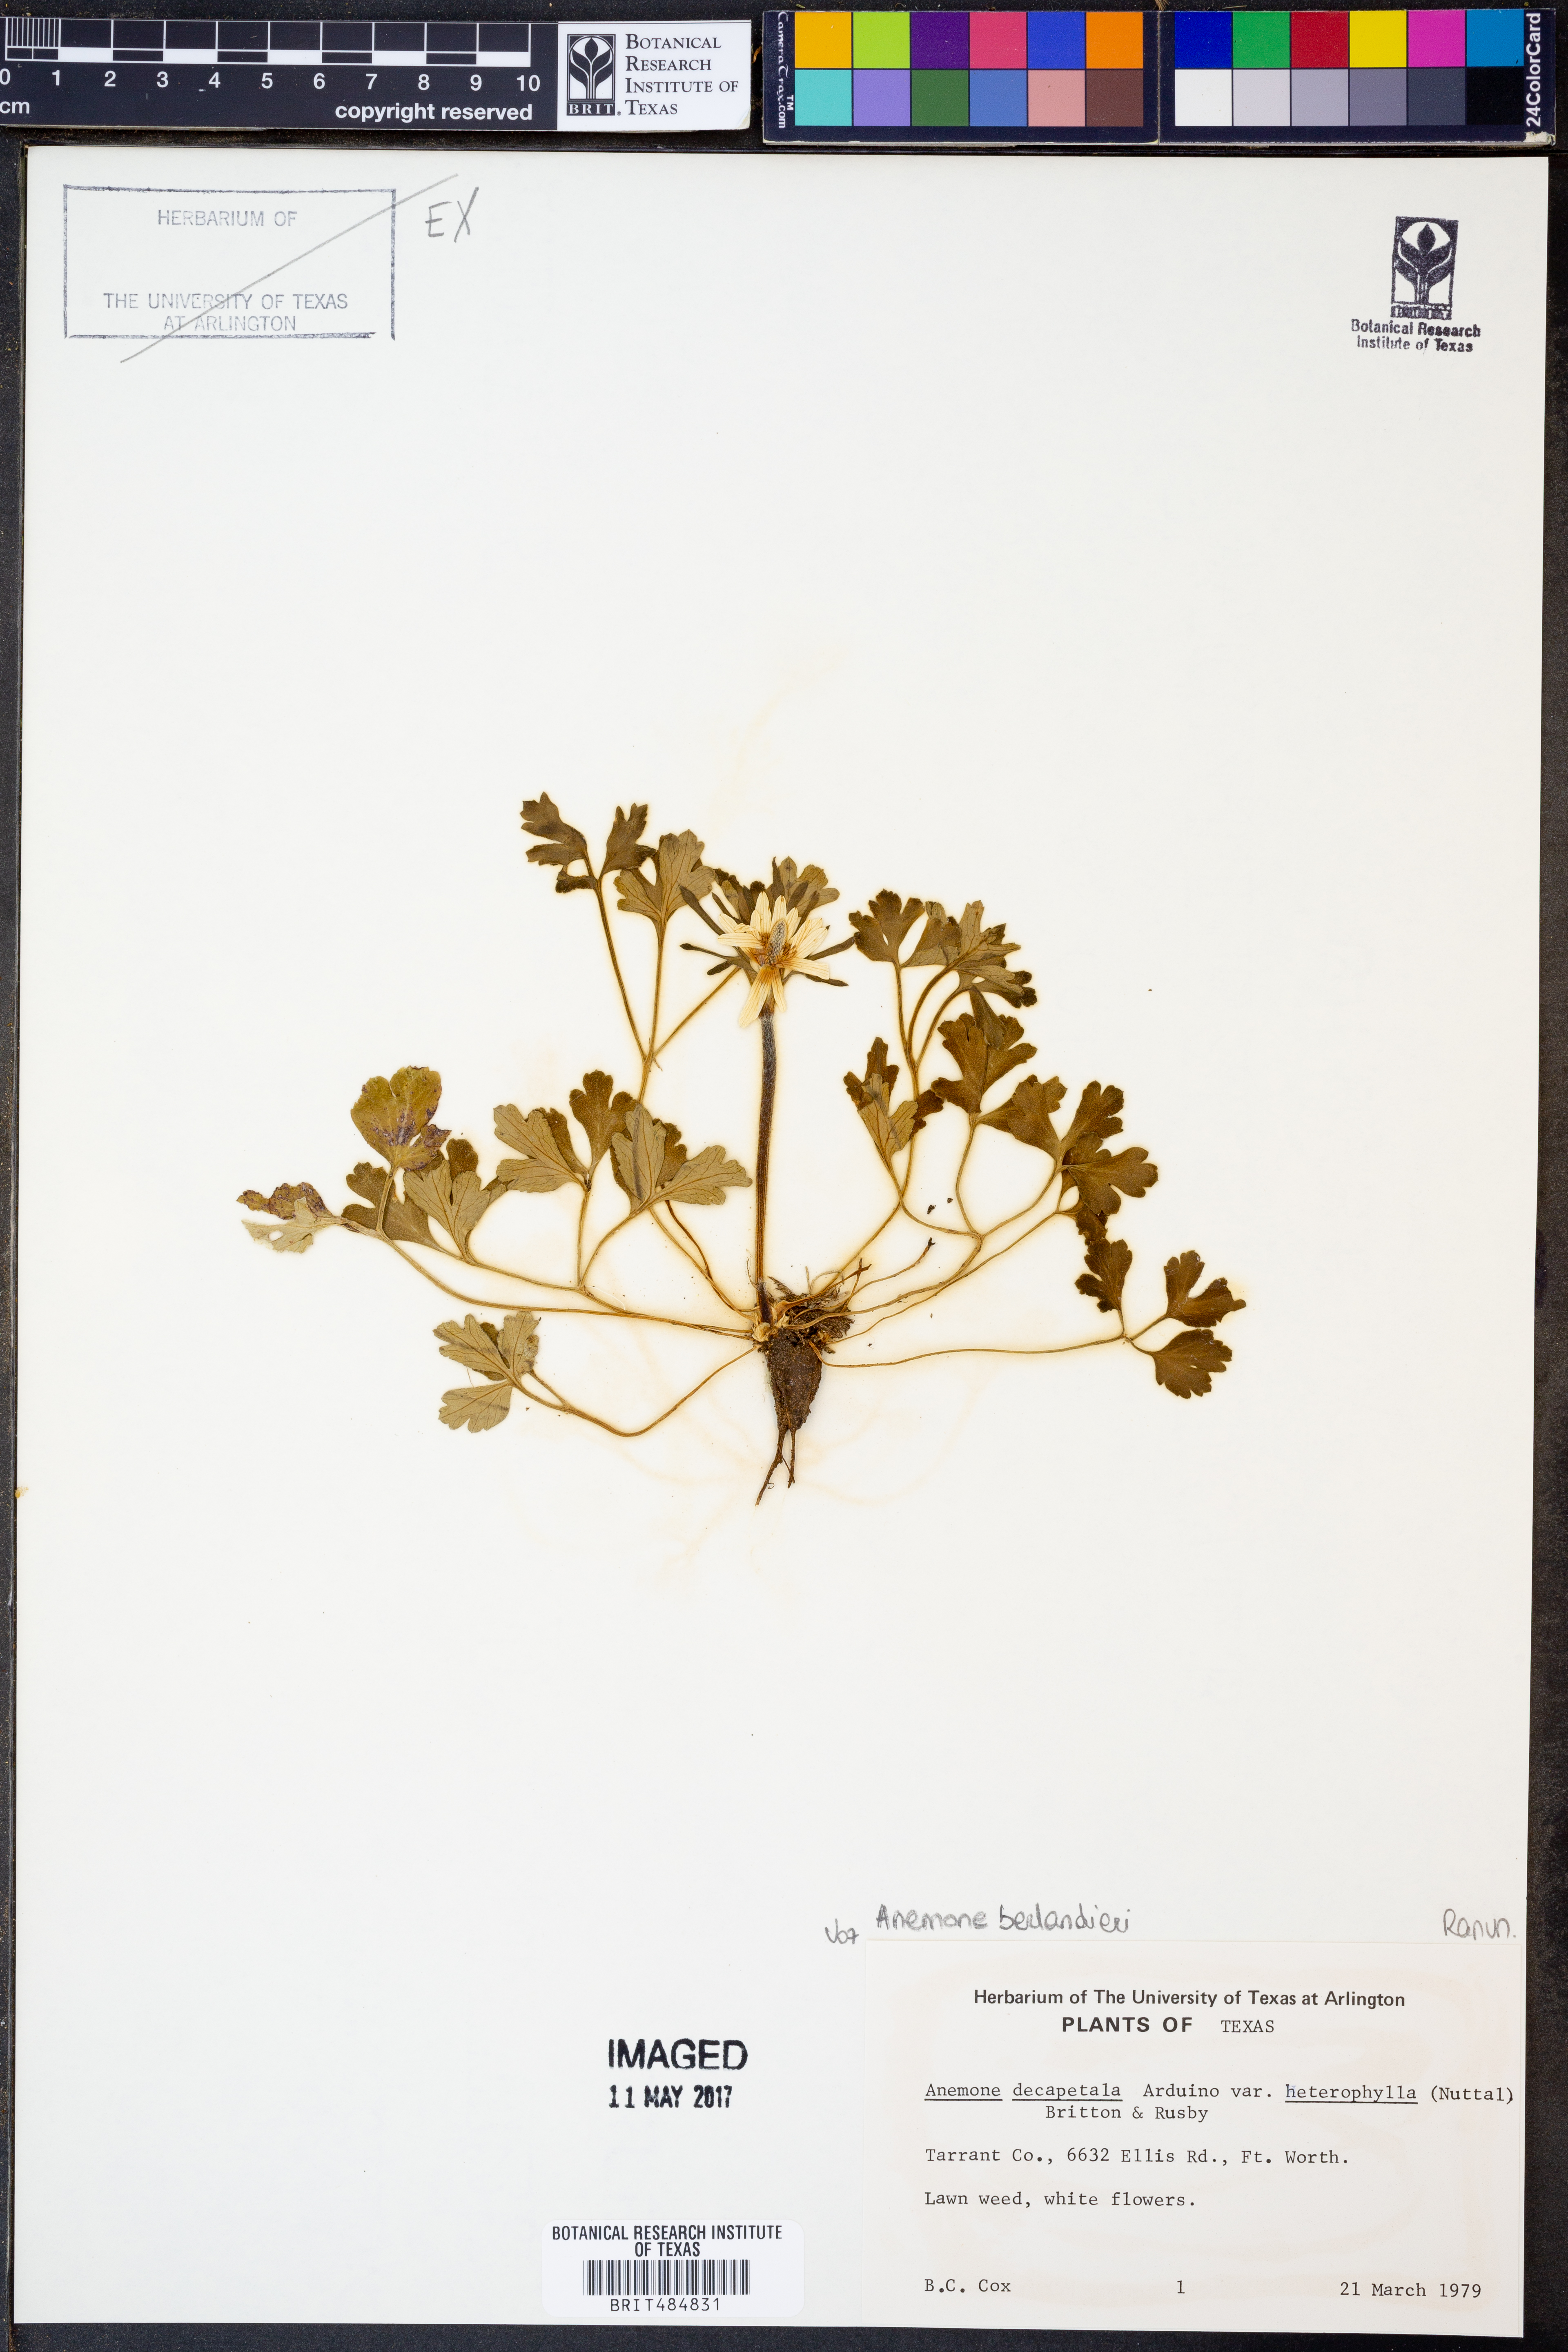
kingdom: Plantae
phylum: Tracheophyta
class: Magnoliopsida
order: Ranunculales
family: Ranunculaceae
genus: Anemone
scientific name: Anemone berlandieri
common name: Ten-petal anemone
